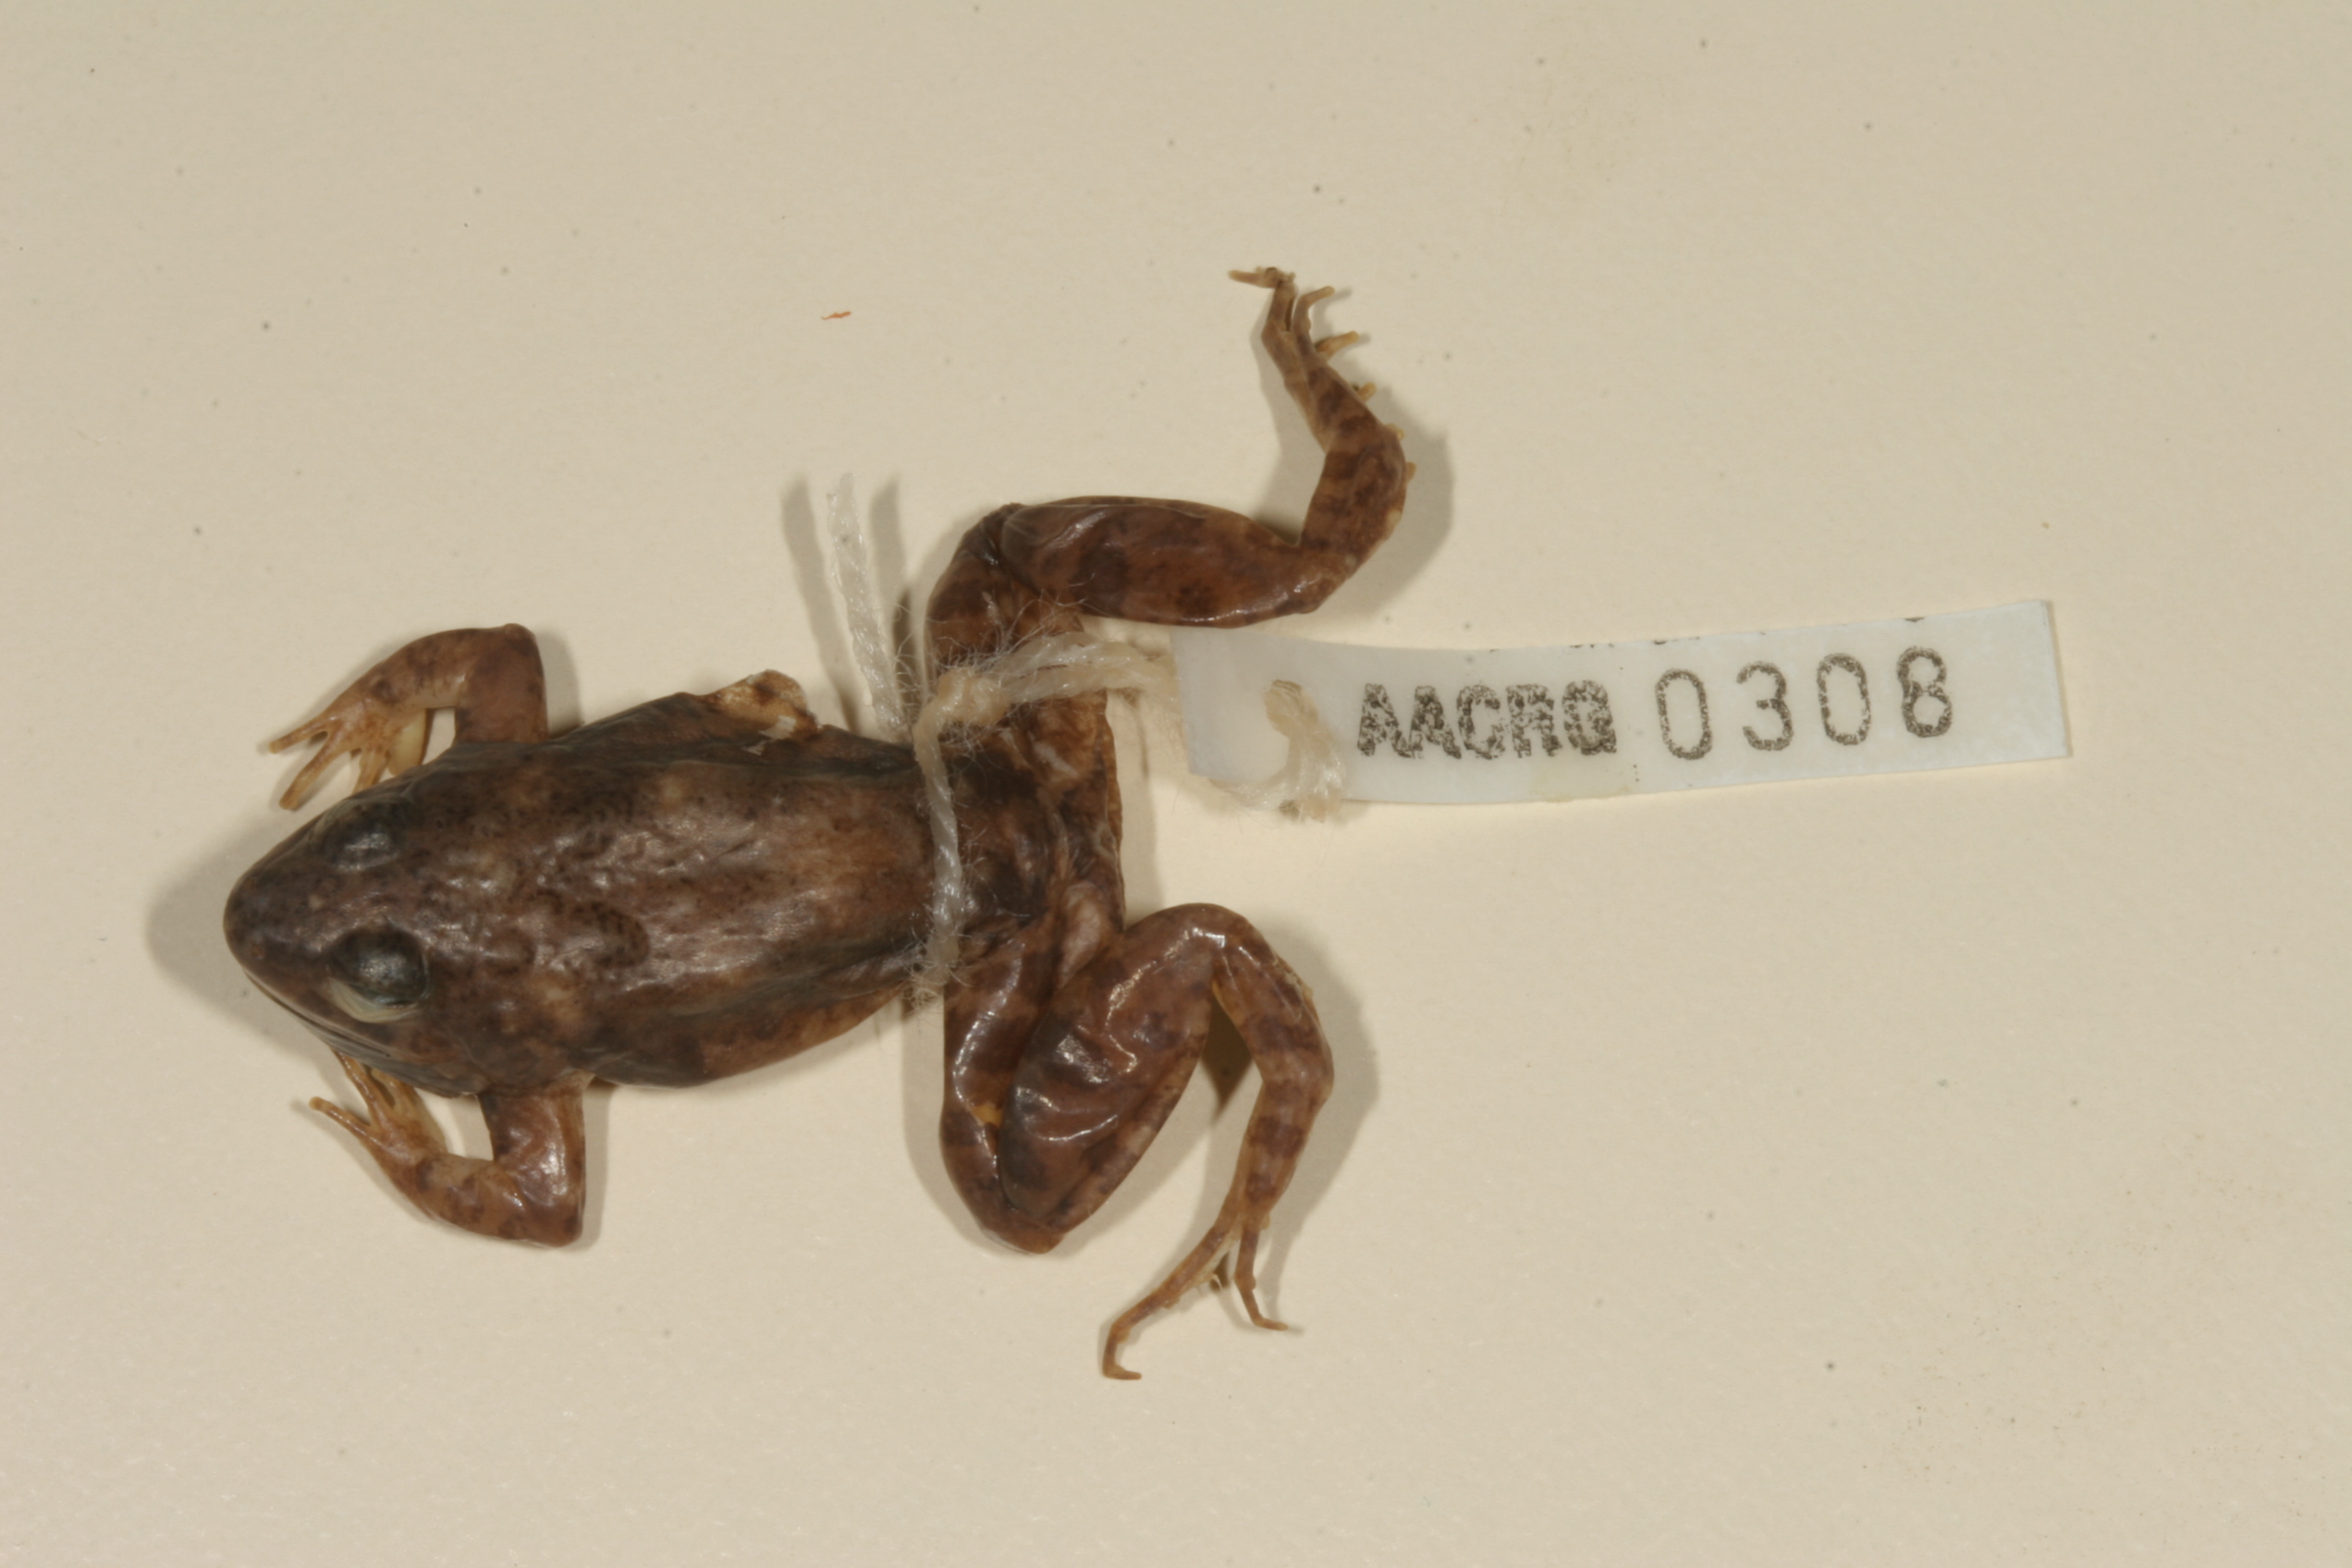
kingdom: Animalia
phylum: Chordata
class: Amphibia
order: Anura
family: Phrynobatrachidae
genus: Phrynobatrachus
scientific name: Phrynobatrachus natalensis
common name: Snoring puddle frog
